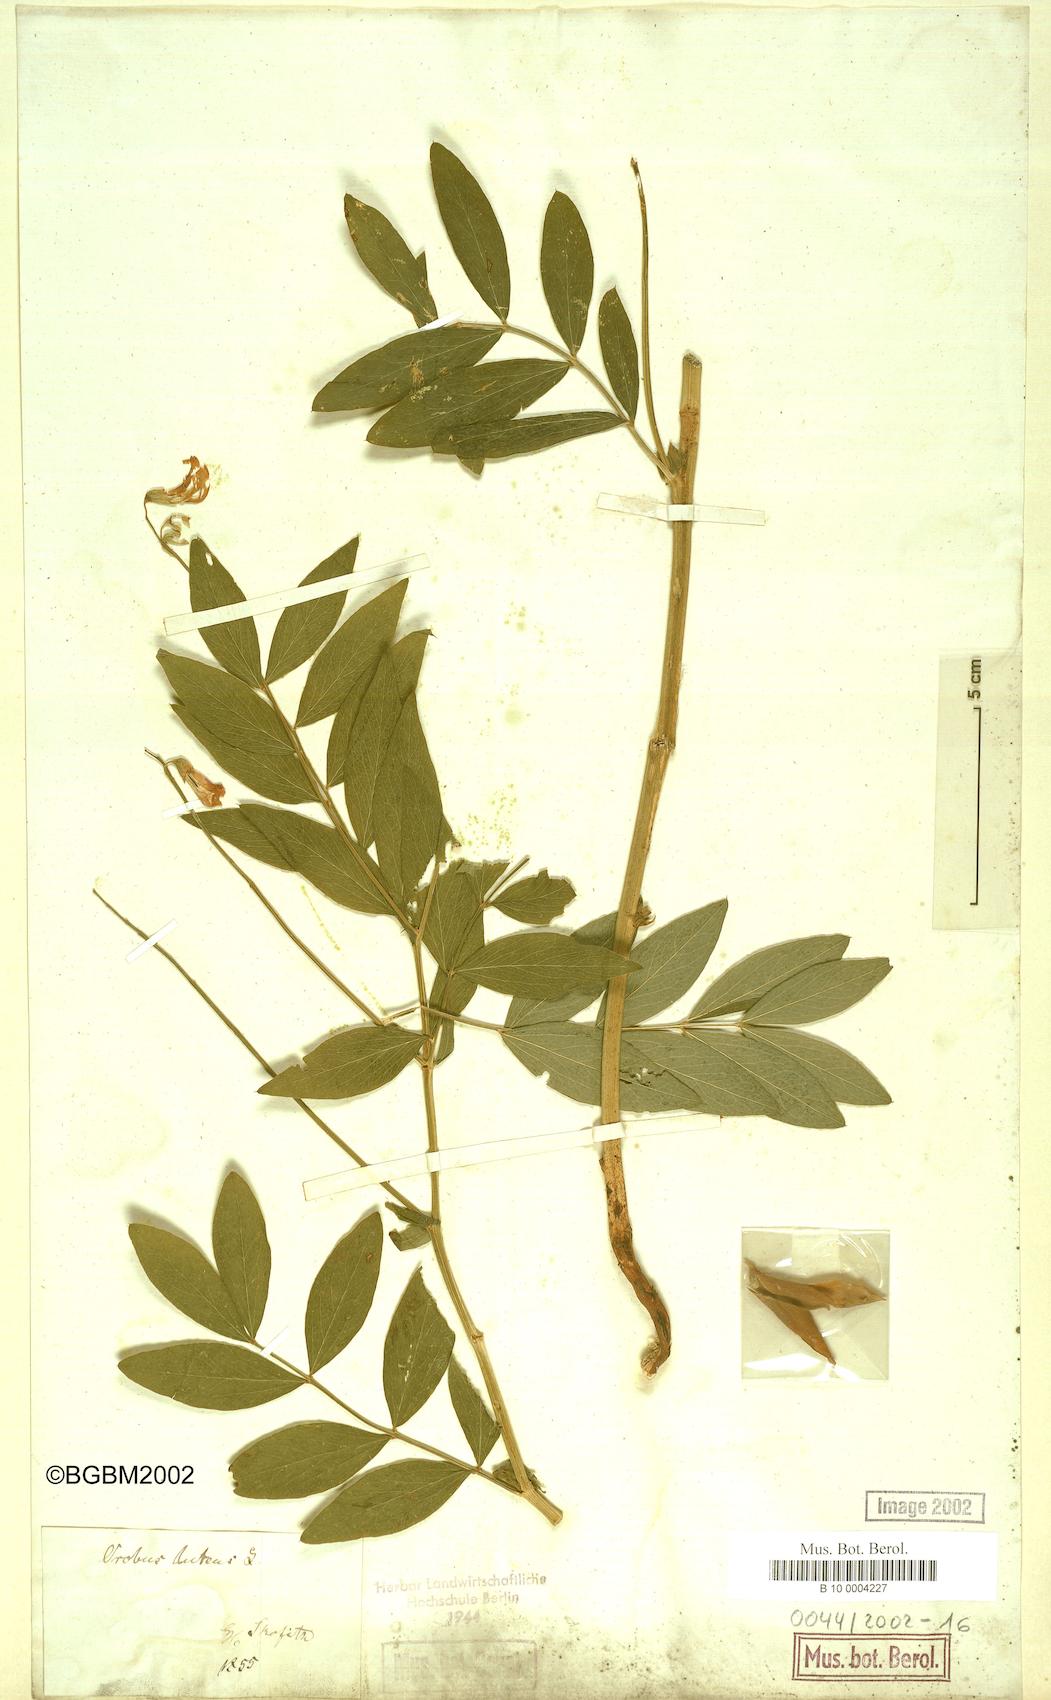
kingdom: Plantae
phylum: Tracheophyta
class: Magnoliopsida
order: Fabales
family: Fabaceae
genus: Lathyrus
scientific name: Lathyrus gmelinii
